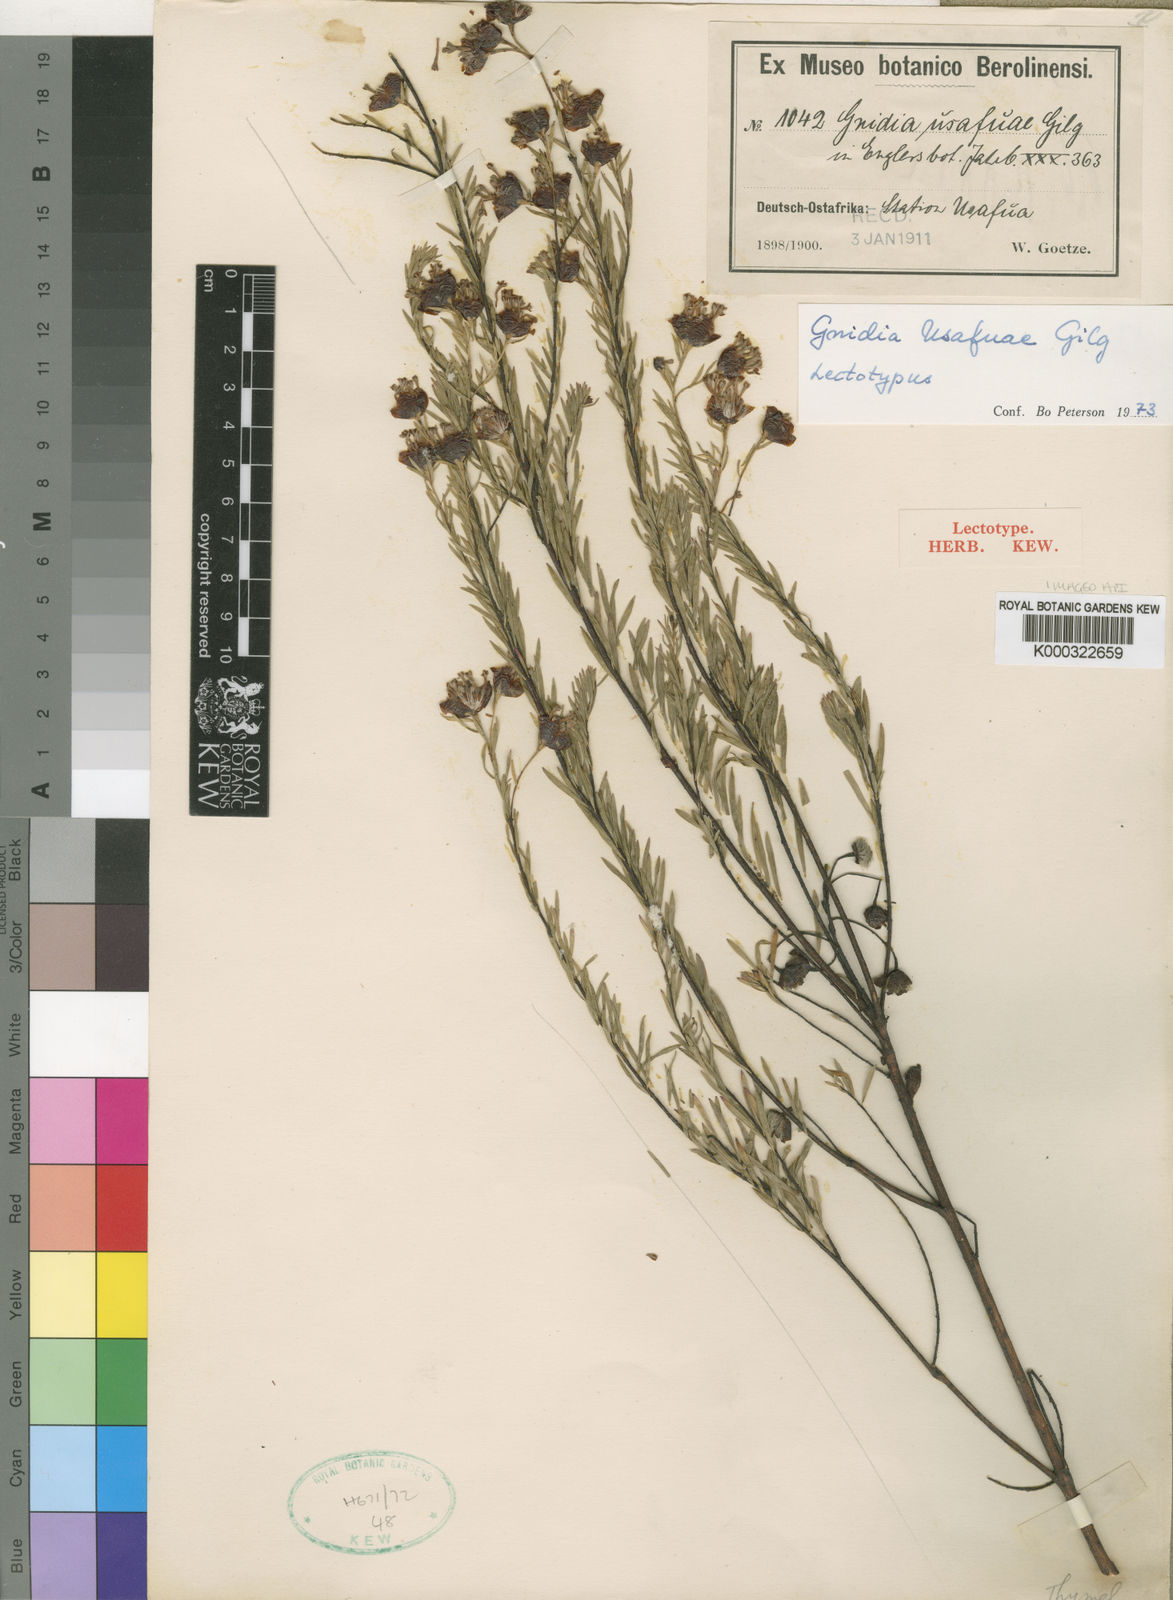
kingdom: Plantae
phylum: Tracheophyta
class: Magnoliopsida
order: Malvales
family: Thymelaeaceae
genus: Gnidia
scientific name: Gnidia usafuae
